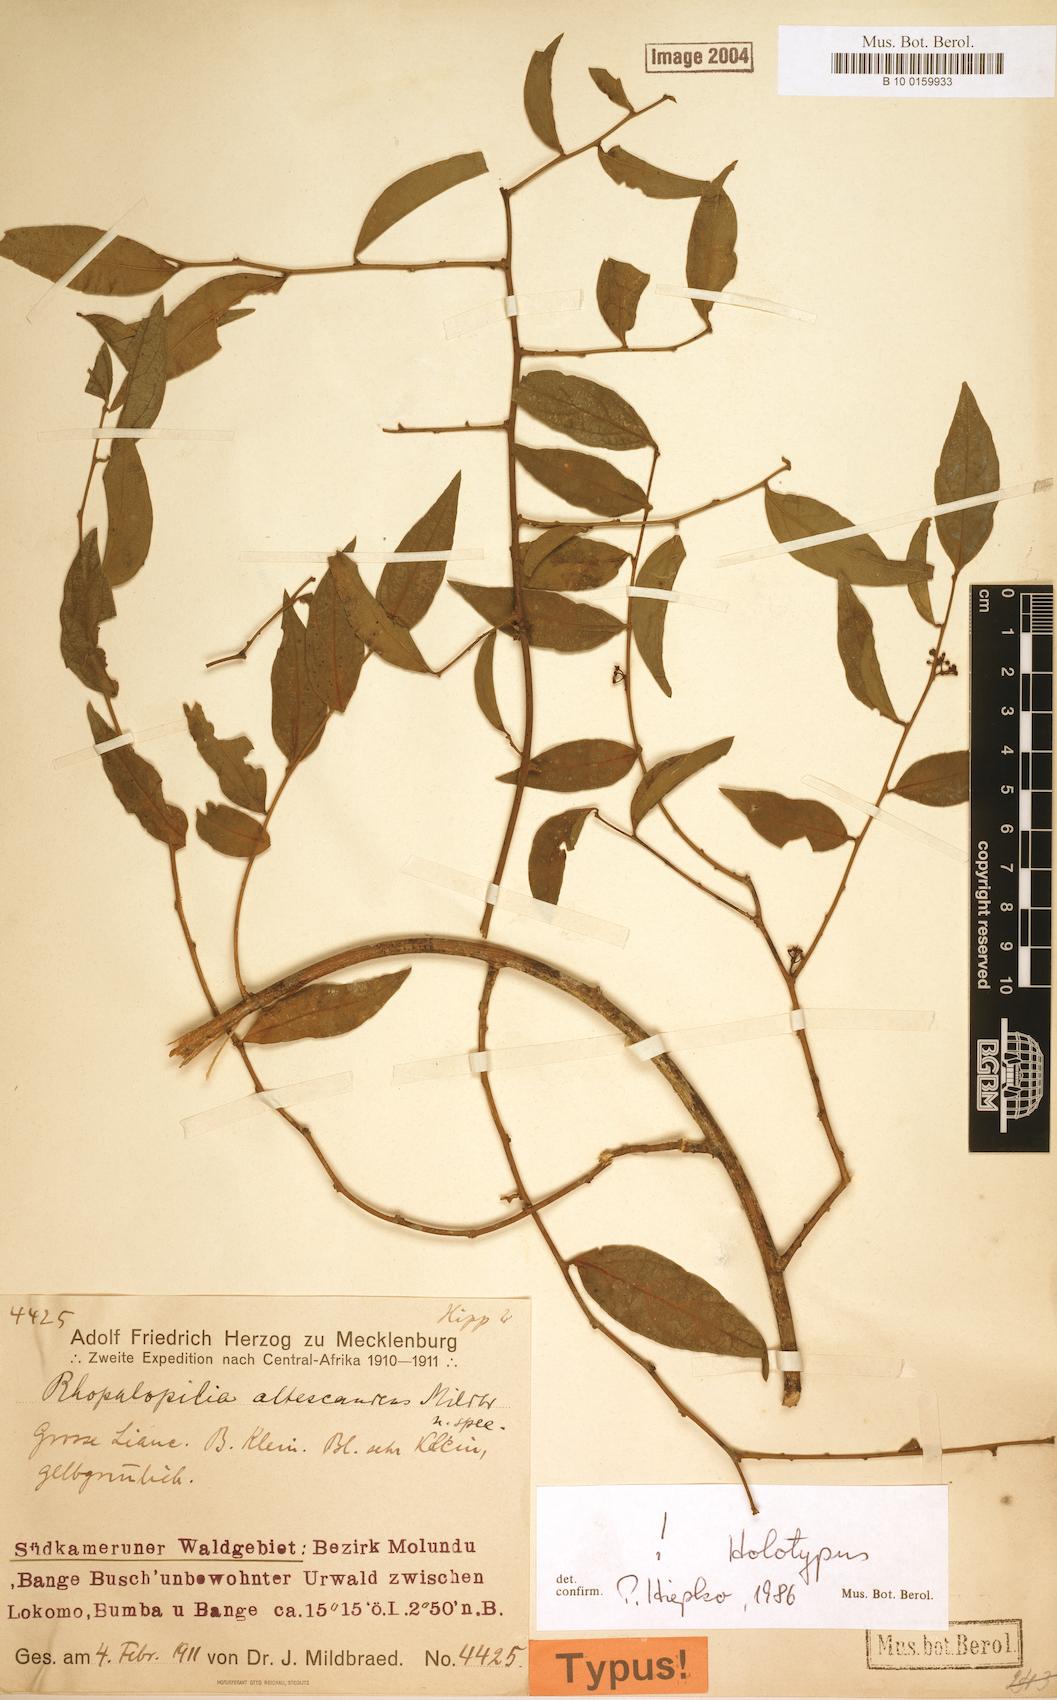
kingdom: Plantae
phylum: Tracheophyta
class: Magnoliopsida
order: Santalales
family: Opiliaceae
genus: Rhopalopilia
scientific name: Rhopalopilia altescandens
